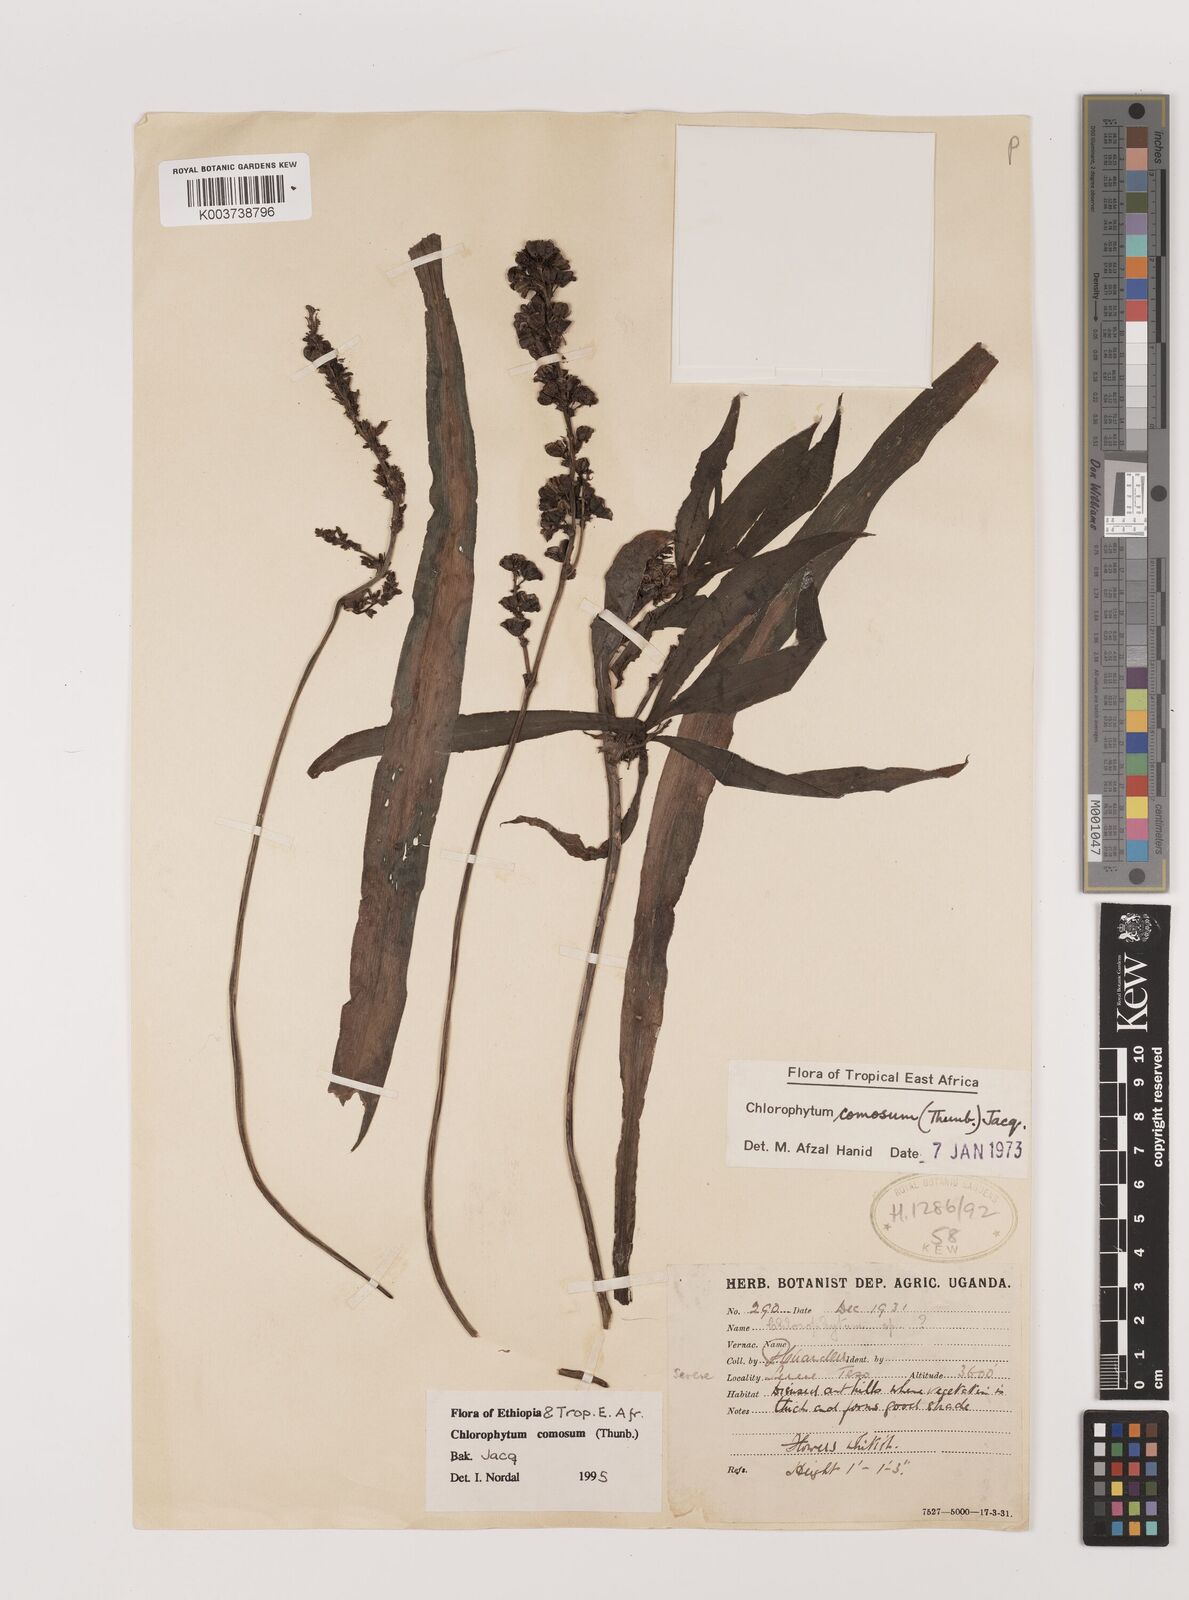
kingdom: Plantae
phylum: Tracheophyta
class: Liliopsida
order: Asparagales
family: Asparagaceae
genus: Chlorophytum
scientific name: Chlorophytum comosum
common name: Spider plant
